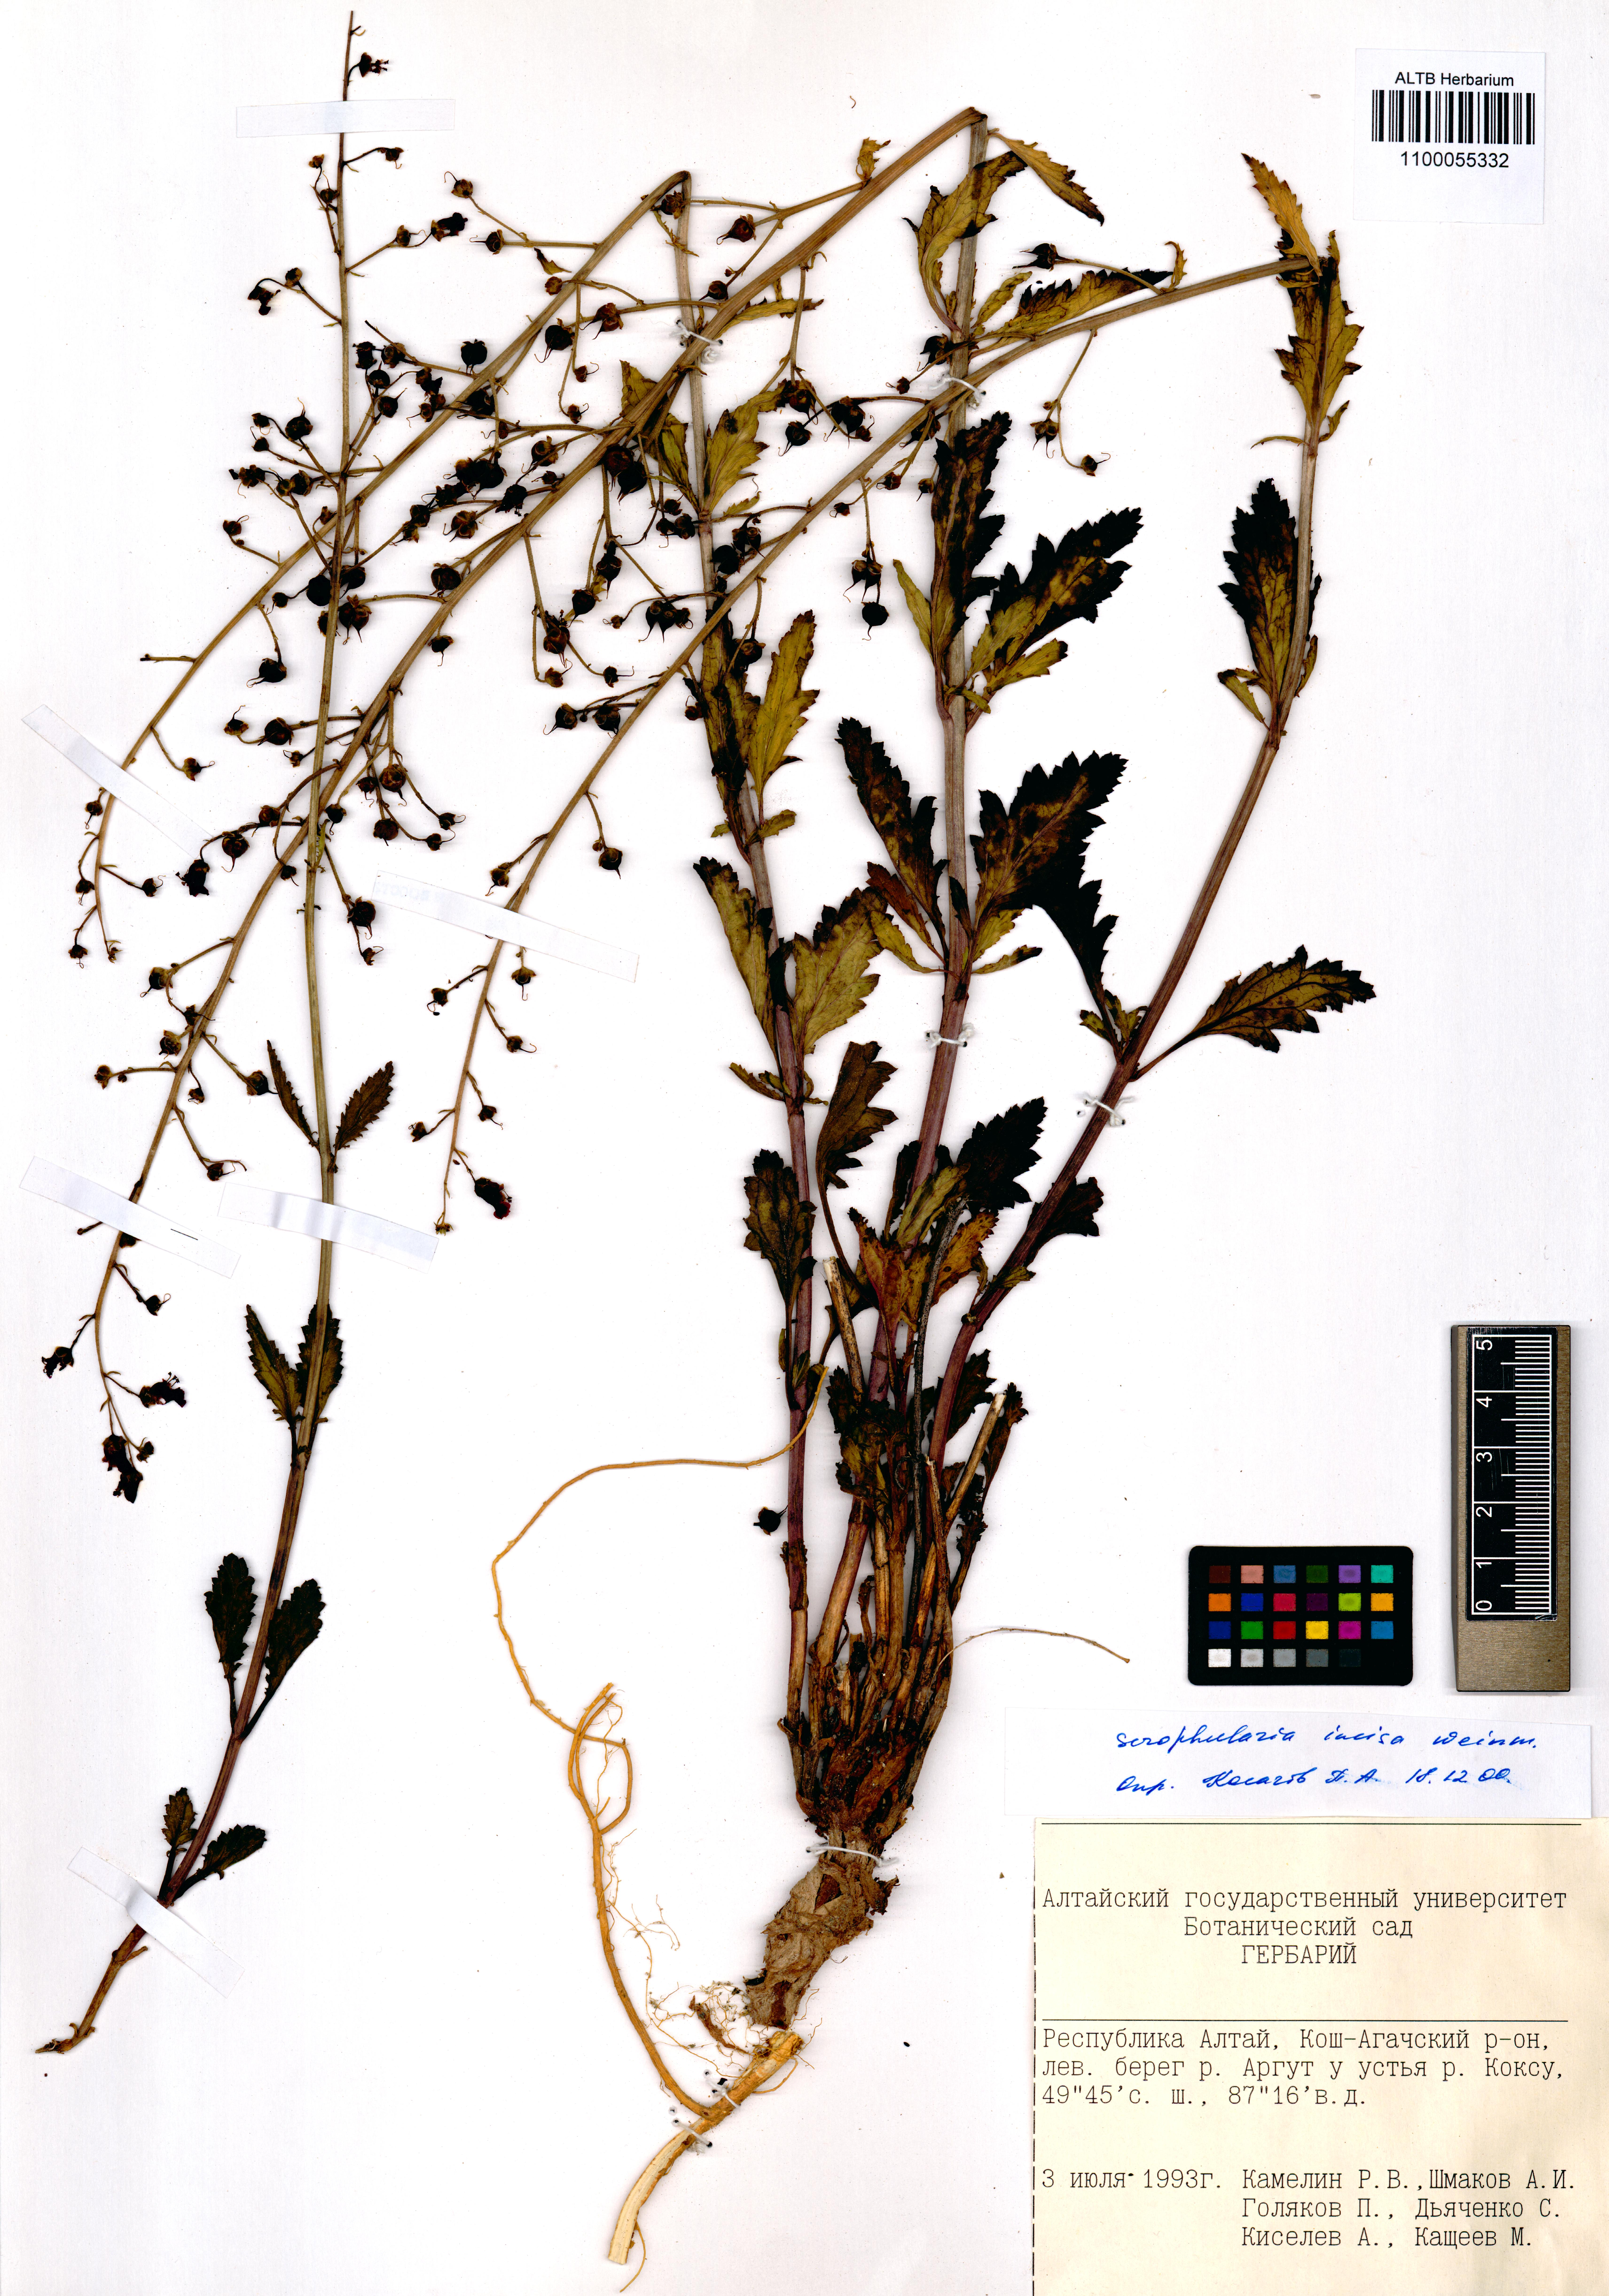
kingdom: Plantae
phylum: Tracheophyta
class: Magnoliopsida
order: Lamiales
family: Scrophulariaceae
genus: Scrophularia
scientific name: Scrophularia incisa
